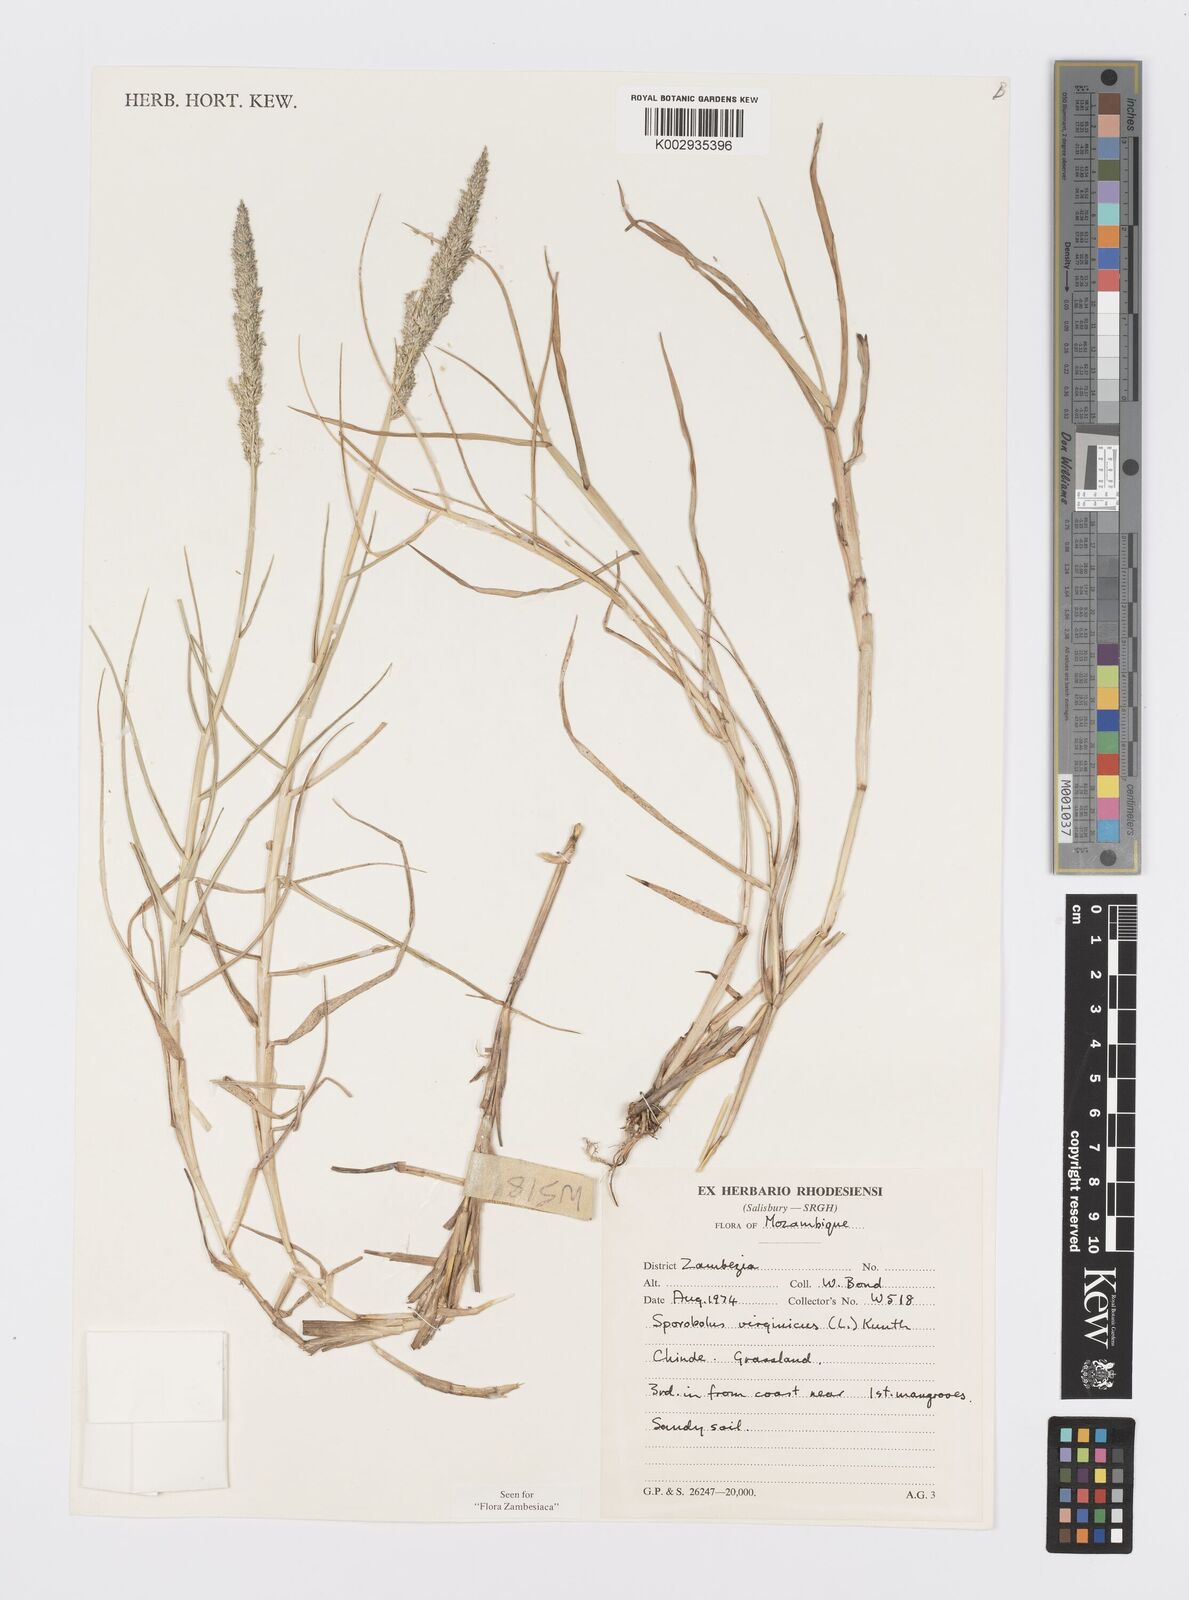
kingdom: Plantae
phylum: Tracheophyta
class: Liliopsida
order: Poales
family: Poaceae
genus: Sporobolus
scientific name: Sporobolus virginicus
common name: Beach dropseed
